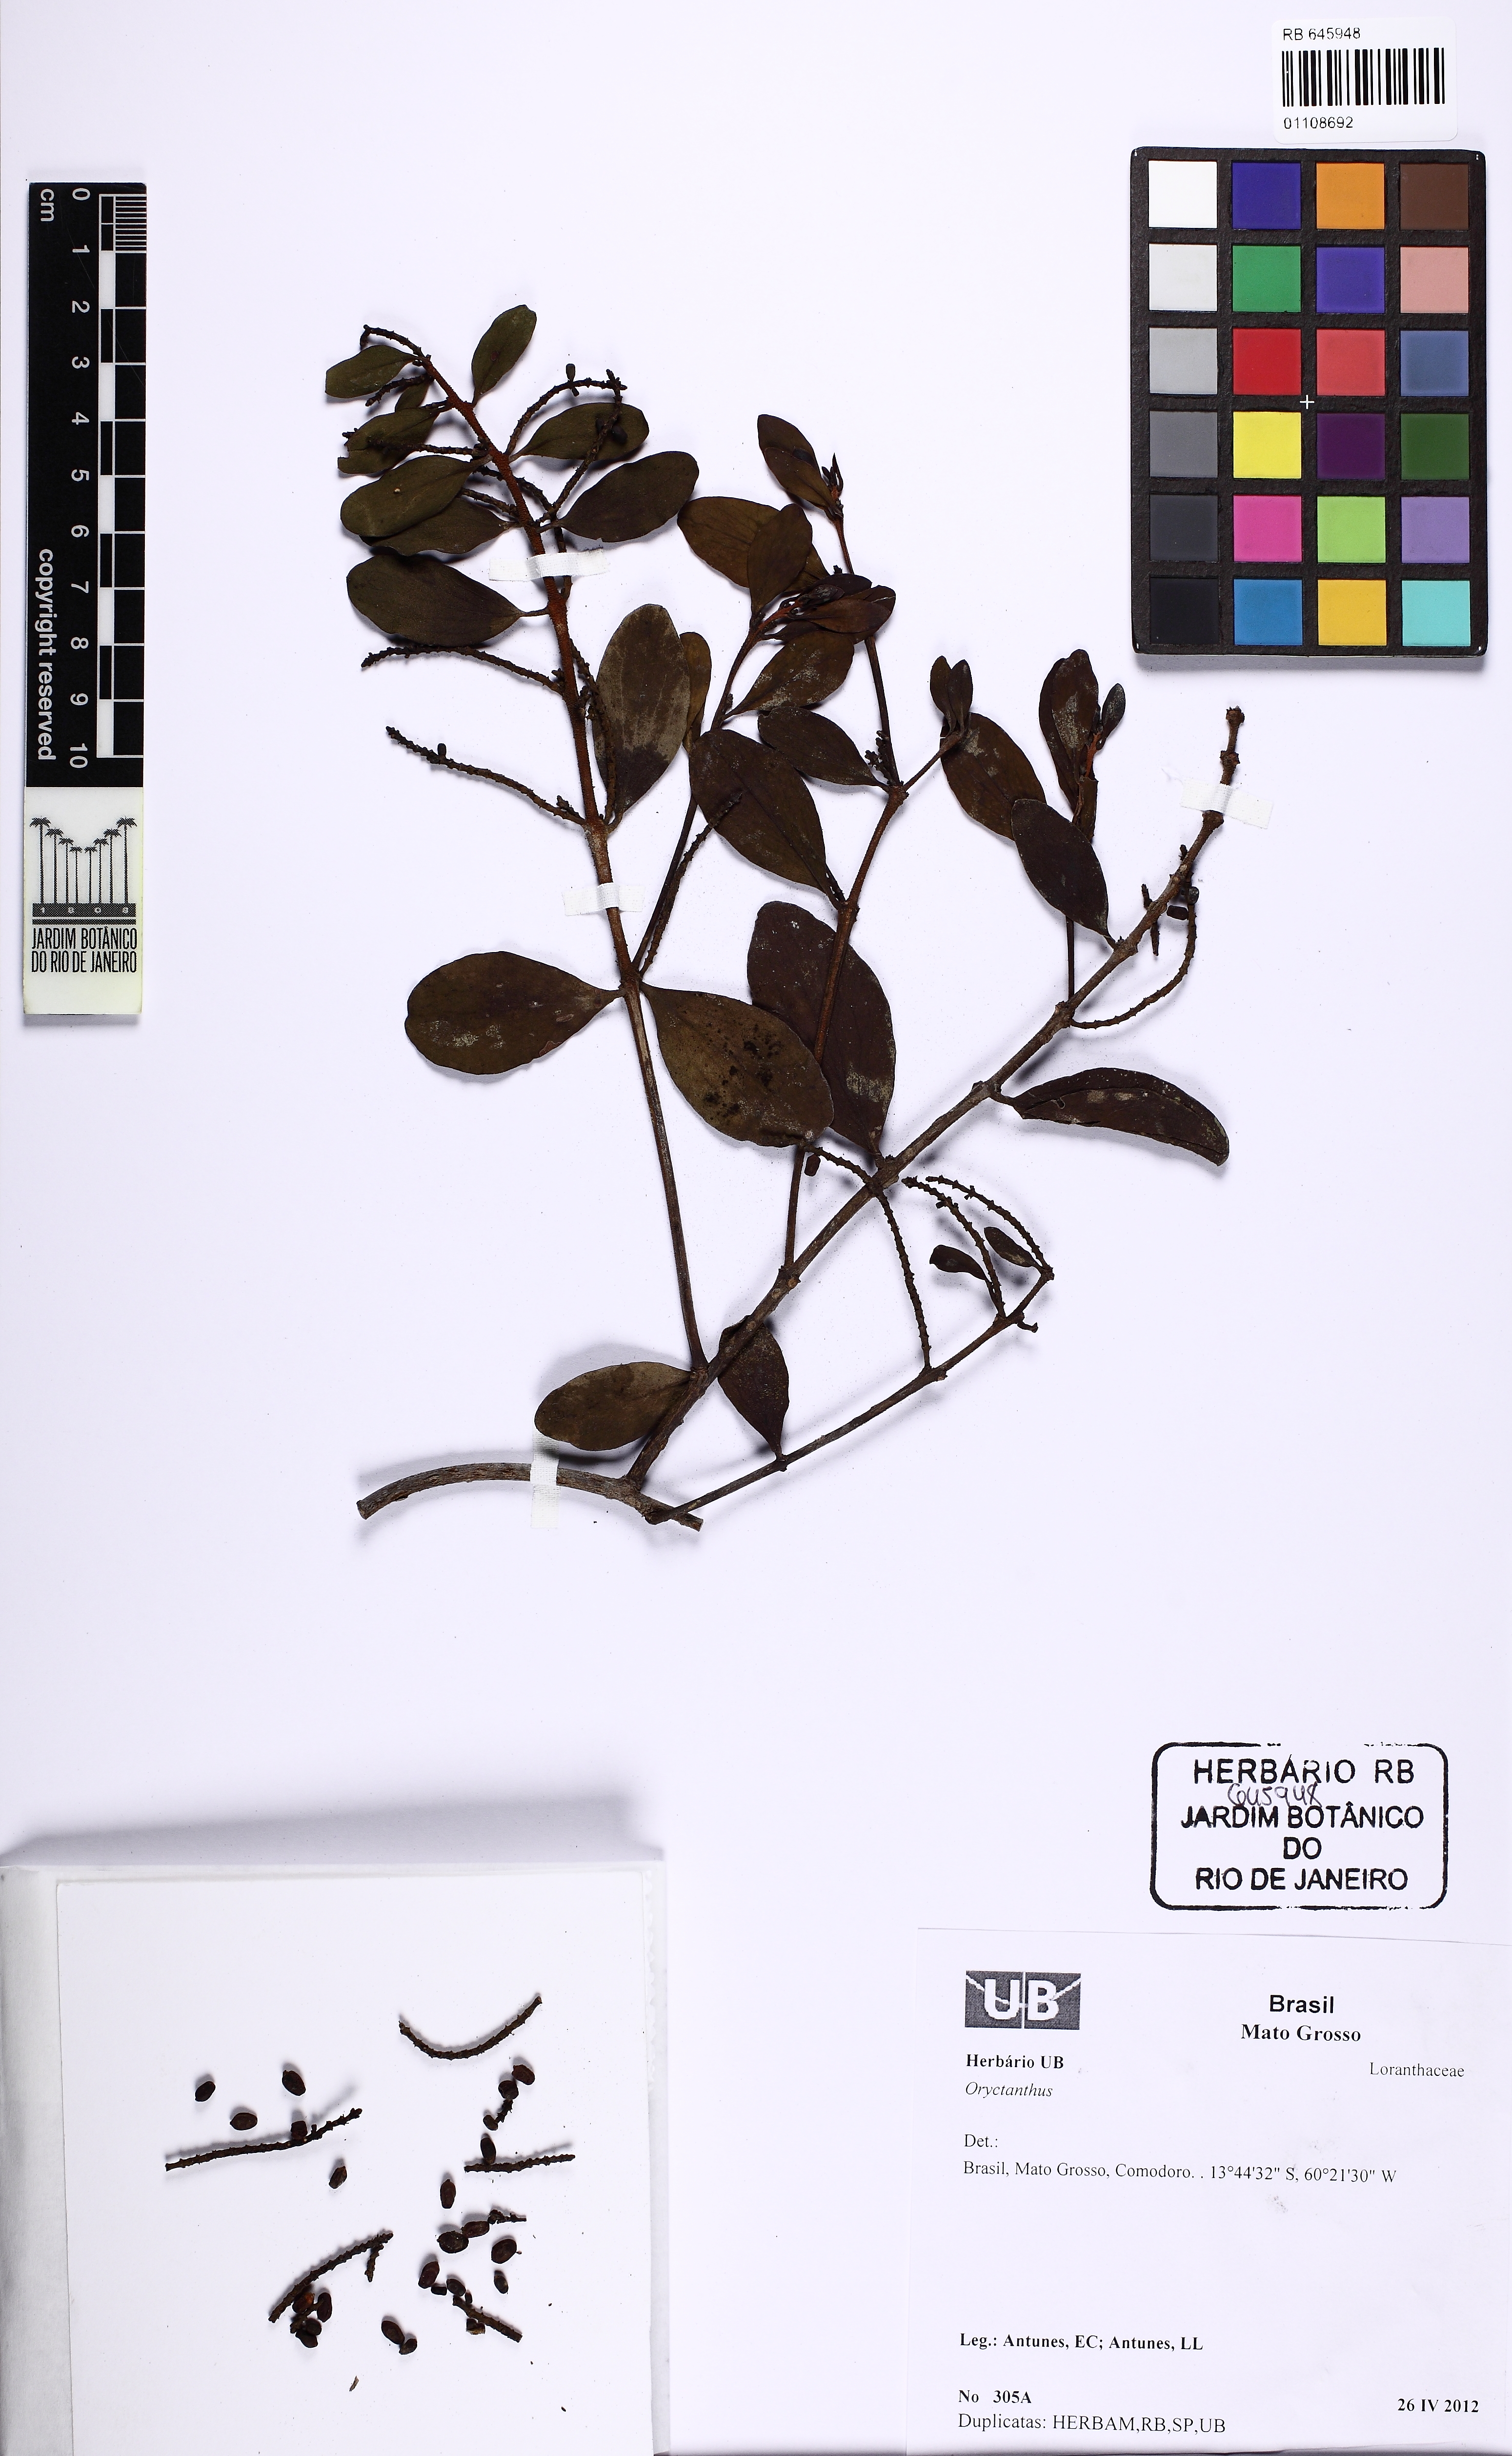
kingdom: Plantae
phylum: Tracheophyta
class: Magnoliopsida
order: Santalales
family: Loranthaceae
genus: Oryctanthus
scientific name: Oryctanthus
